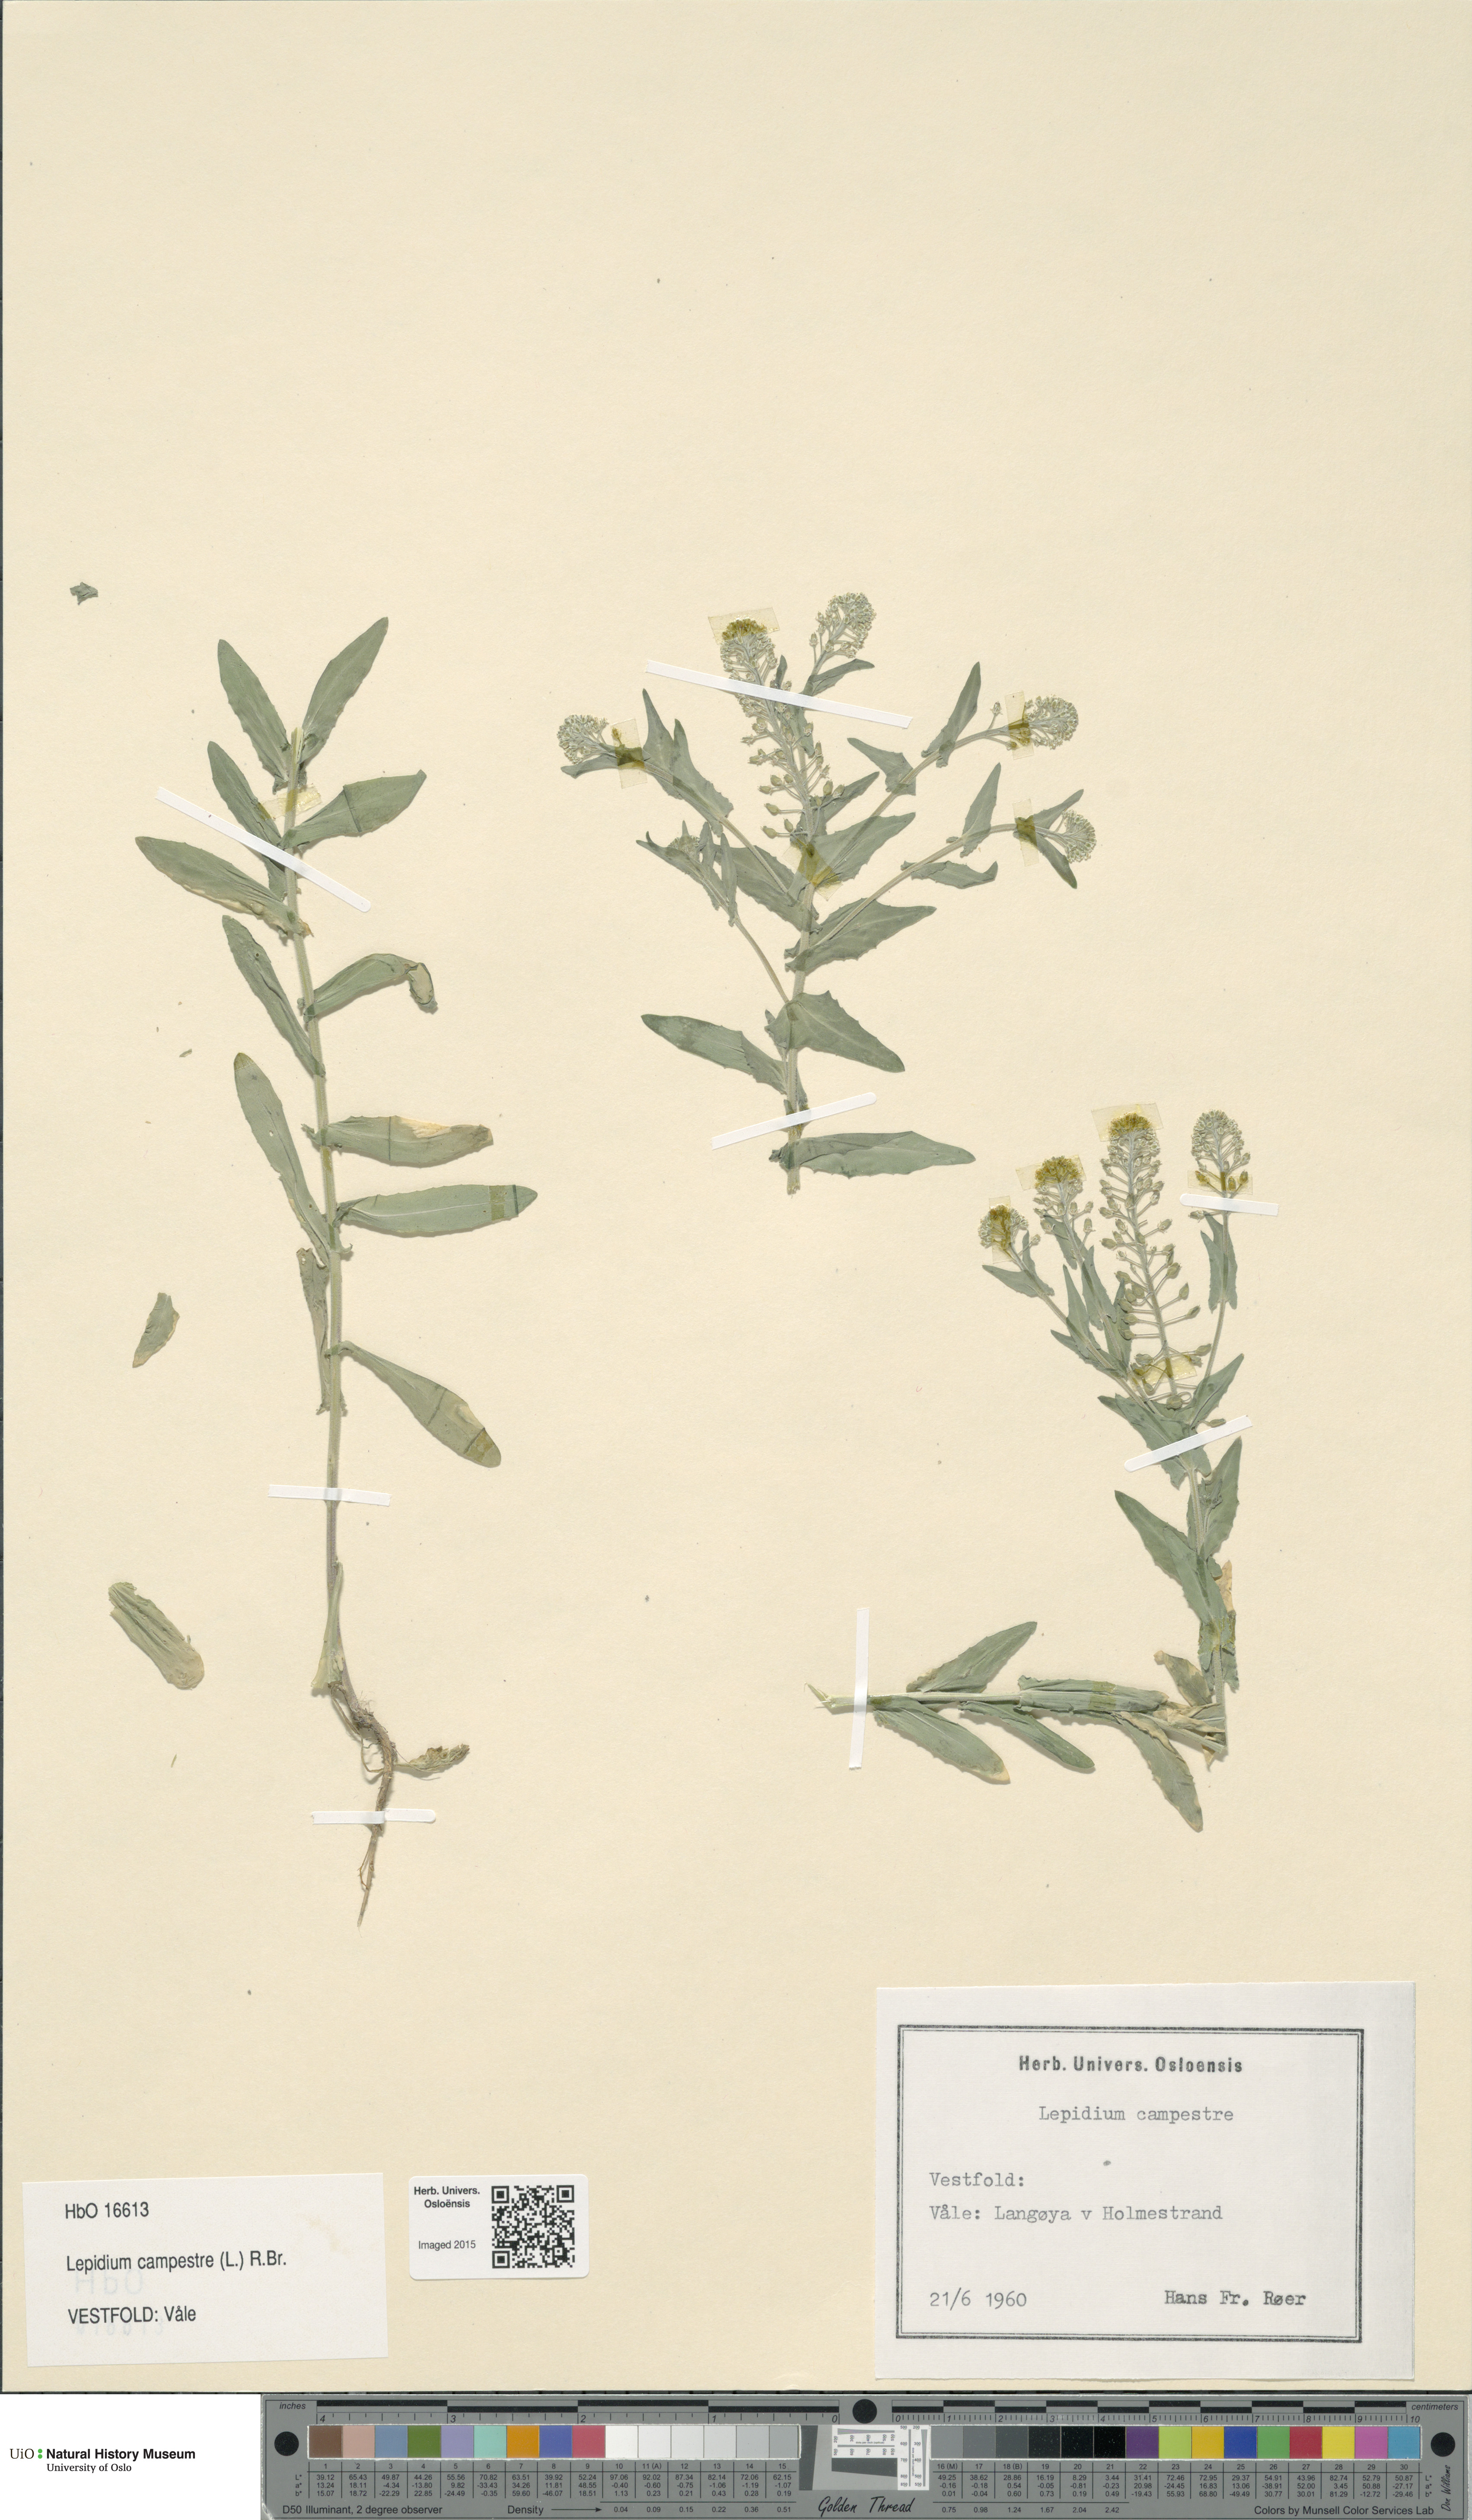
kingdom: Plantae
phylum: Tracheophyta
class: Magnoliopsida
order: Brassicales
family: Brassicaceae
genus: Lepidium
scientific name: Lepidium campestre
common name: Field pepperwort
